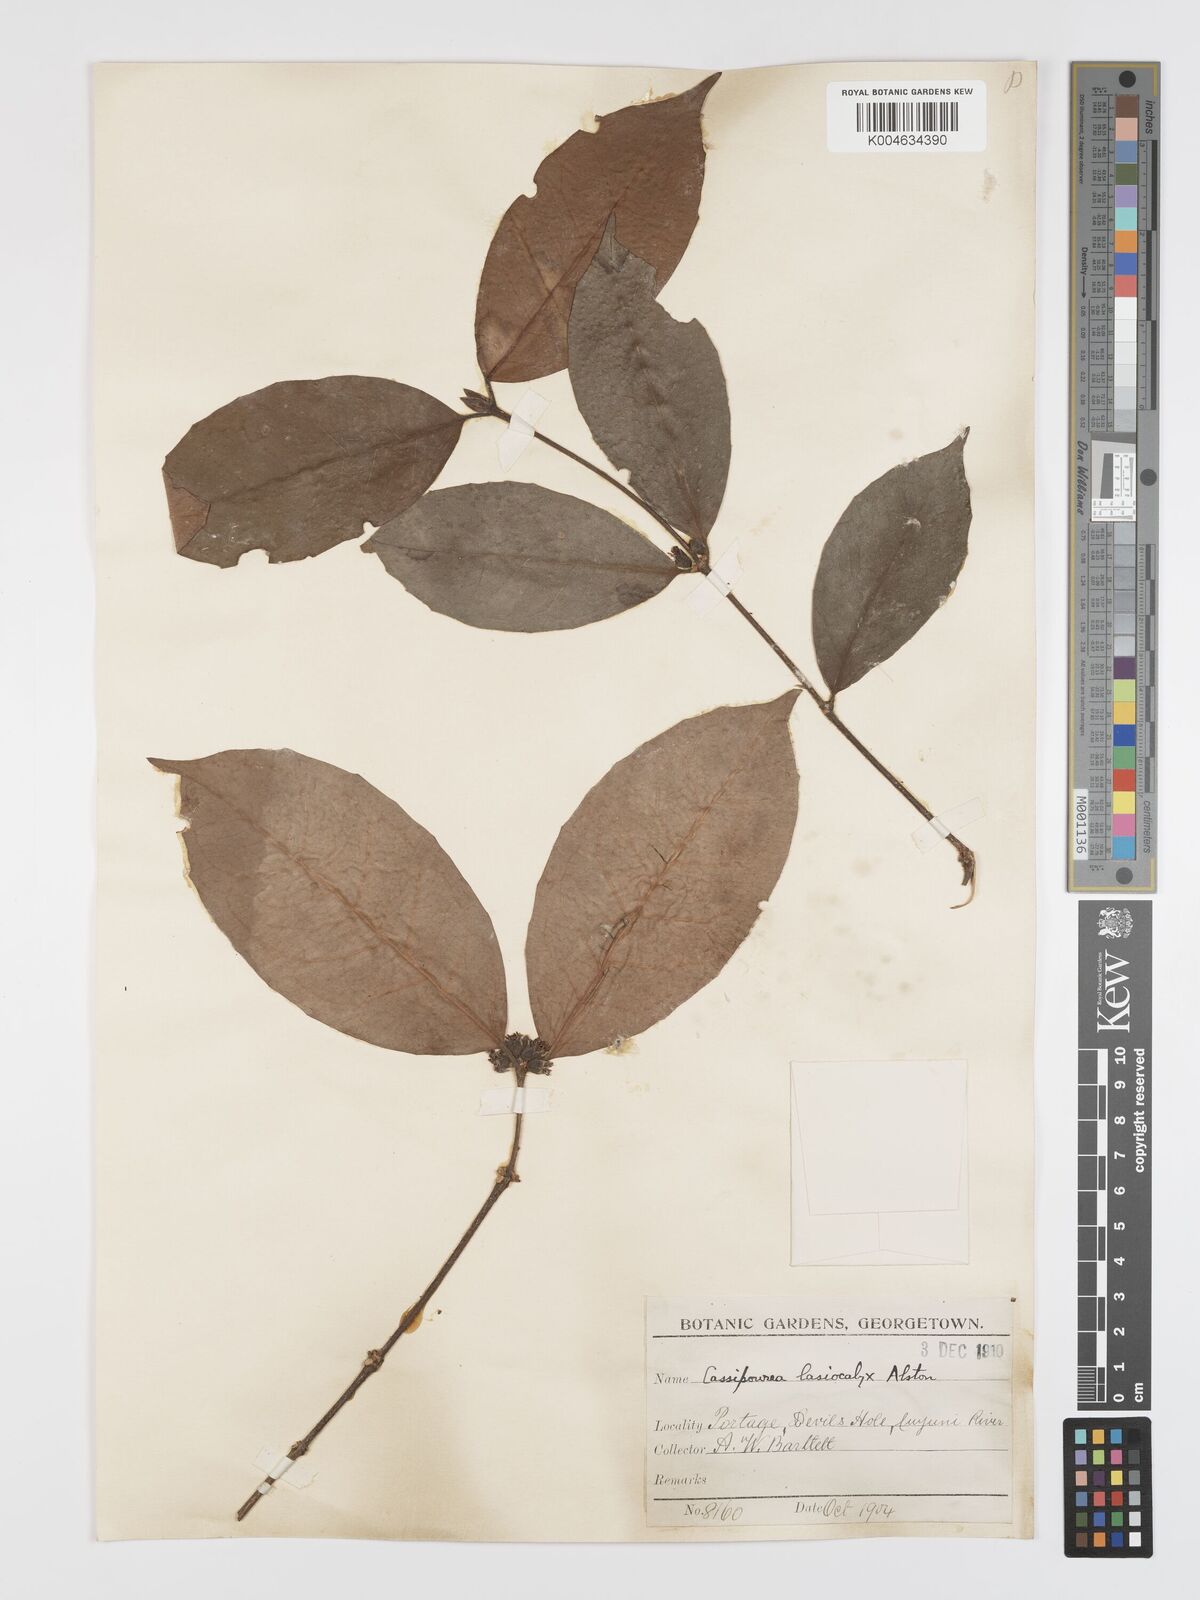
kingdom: Plantae
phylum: Tracheophyta
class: Magnoliopsida
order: Malpighiales
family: Rhizophoraceae
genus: Cassipourea
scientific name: Cassipourea lasiocalyx
